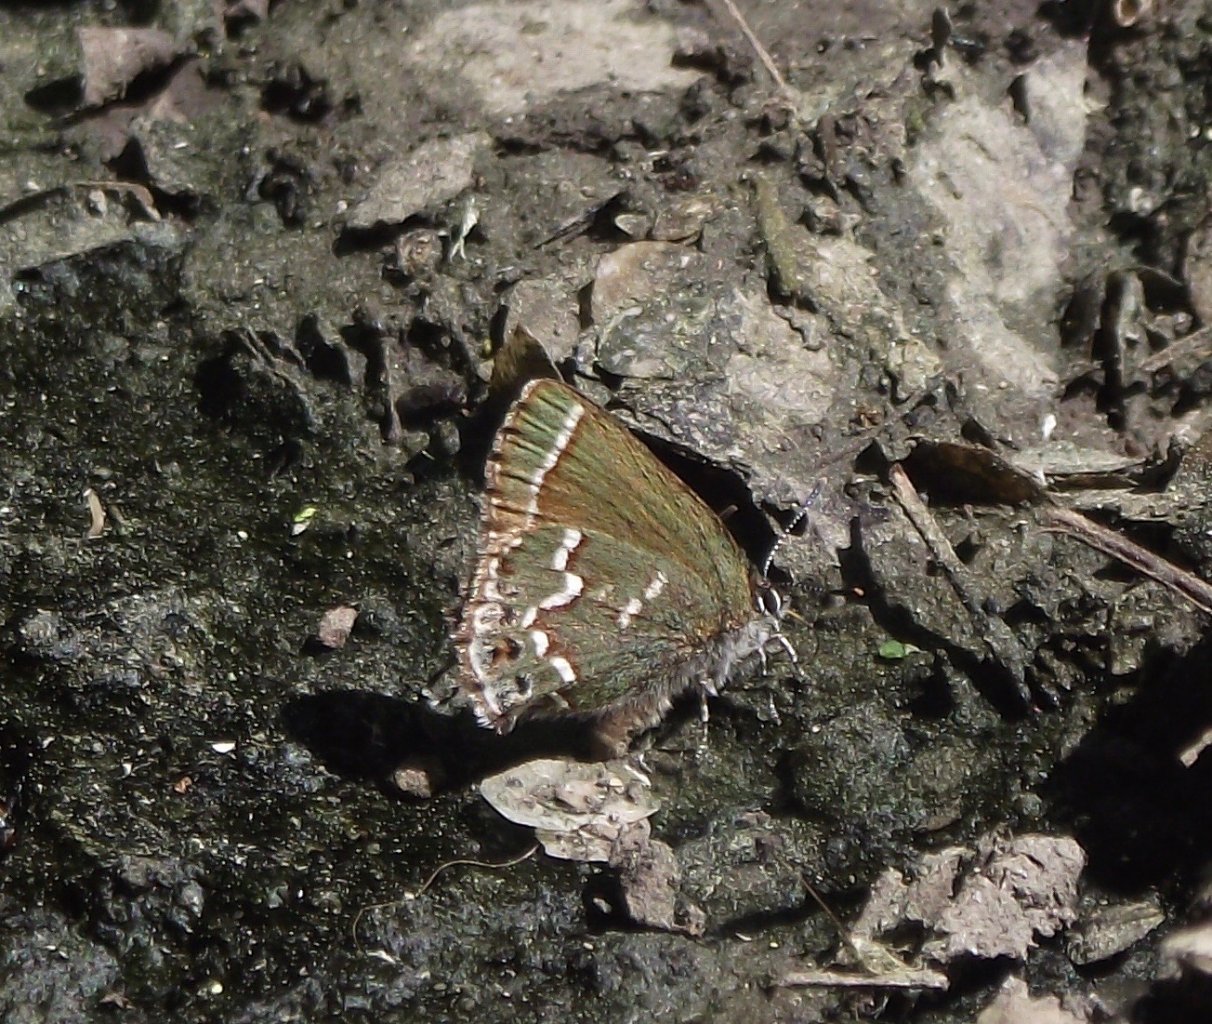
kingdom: Animalia
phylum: Arthropoda
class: Insecta
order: Lepidoptera
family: Lycaenidae
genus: Mitoura
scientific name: Mitoura gryneus
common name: Juniper Hairstreak
